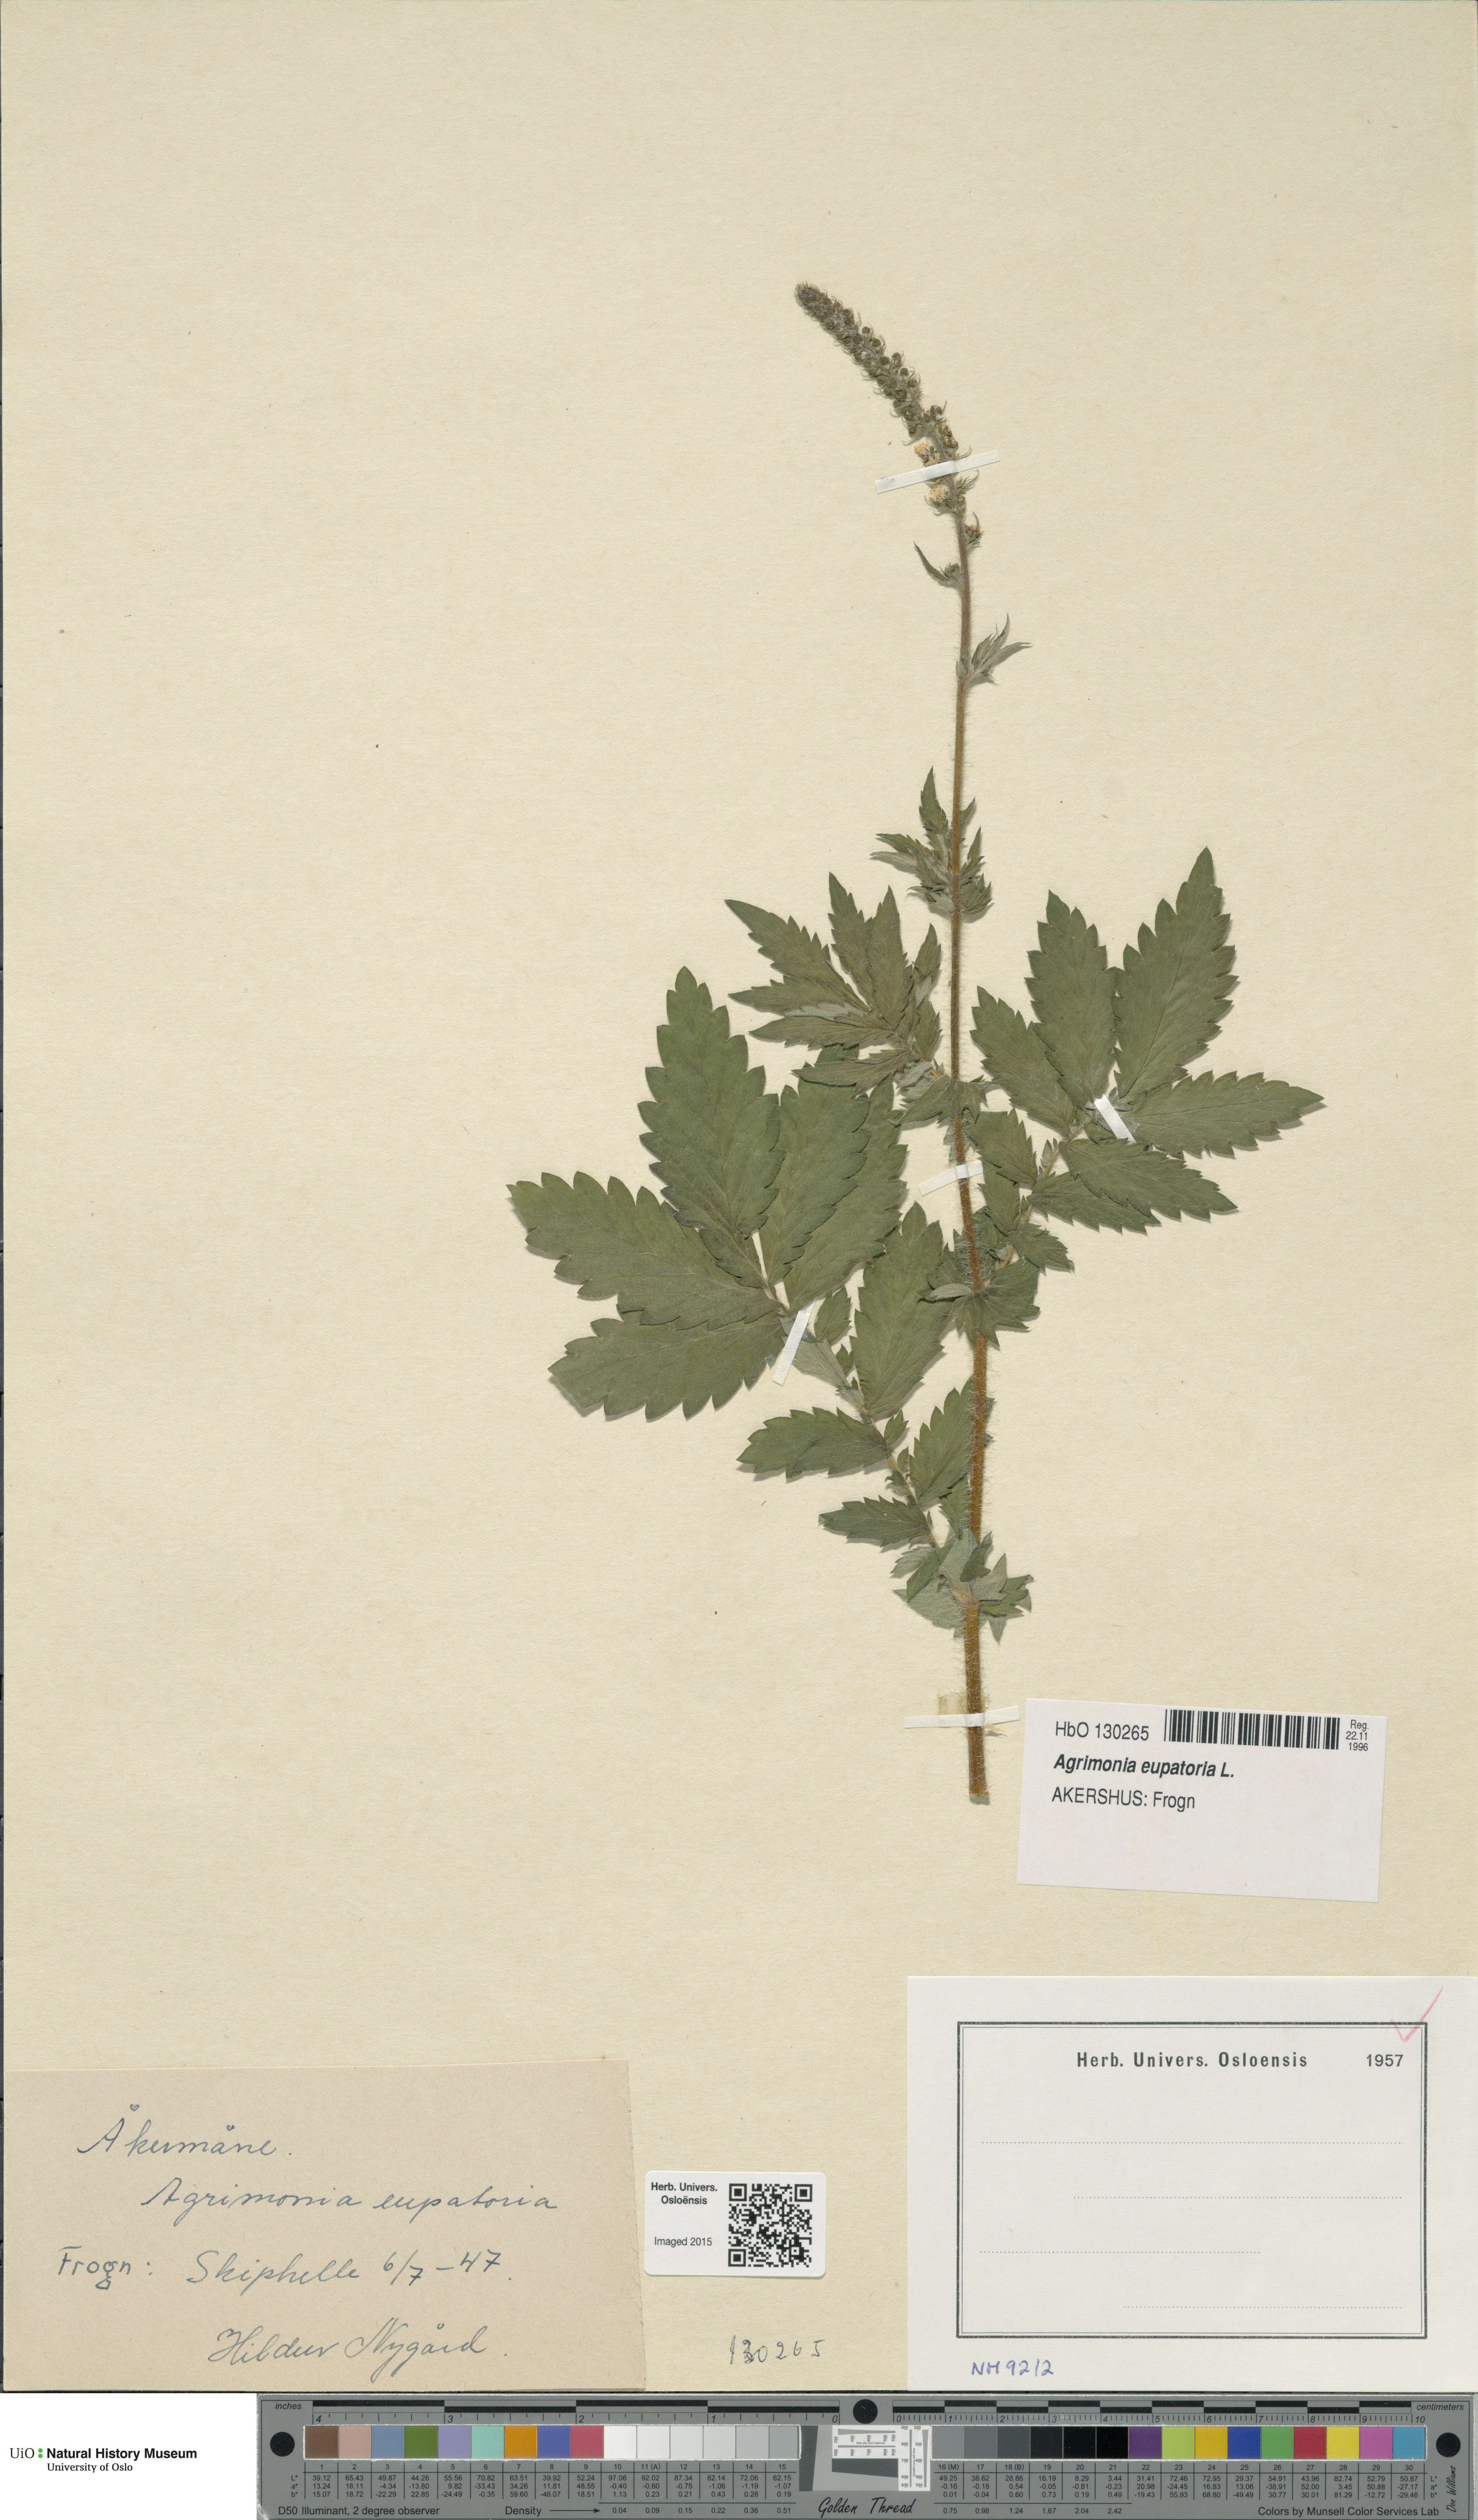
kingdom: Plantae
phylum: Tracheophyta
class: Magnoliopsida
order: Rosales
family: Rosaceae
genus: Agrimonia
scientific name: Agrimonia eupatoria
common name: Agrimony
